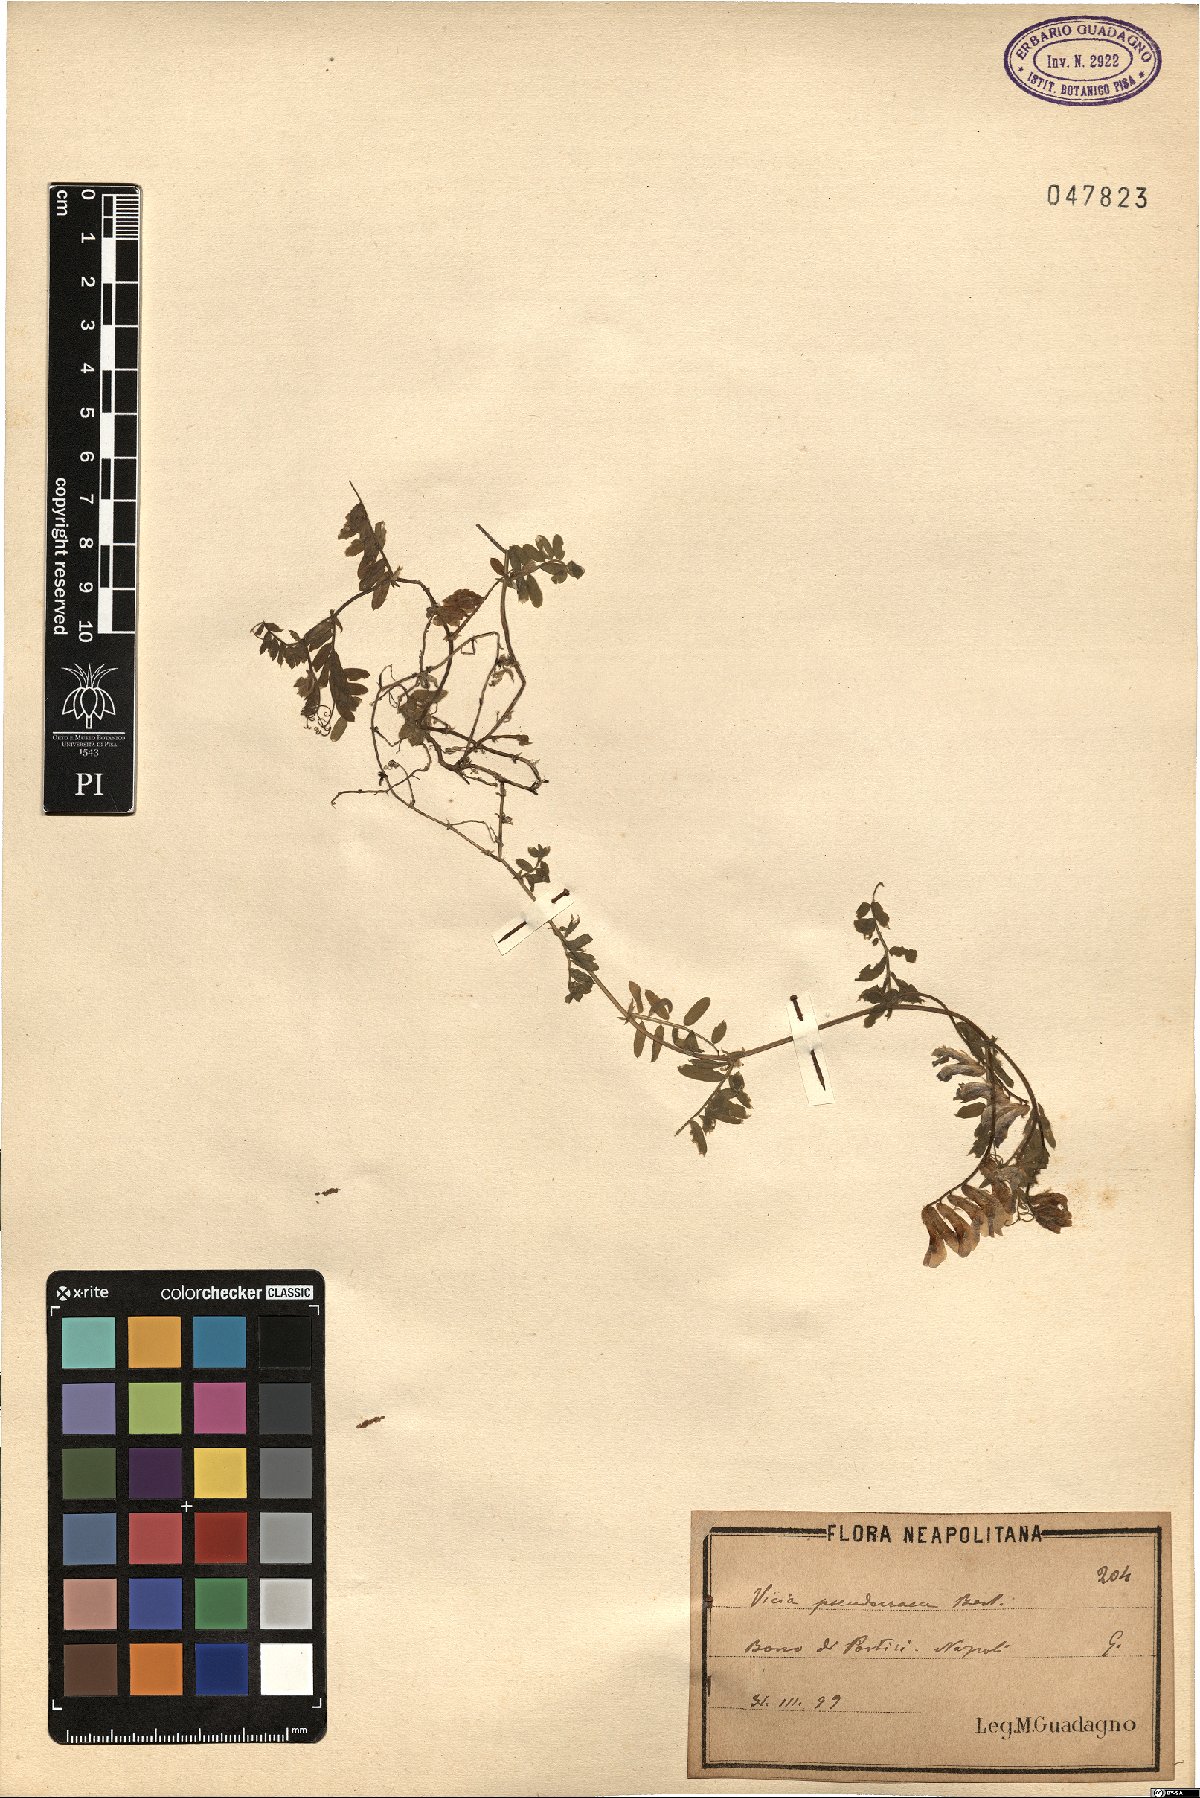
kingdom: Plantae
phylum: Tracheophyta
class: Magnoliopsida
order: Fabales
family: Fabaceae
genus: Vicia
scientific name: Vicia villosa
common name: Fodder vetch
